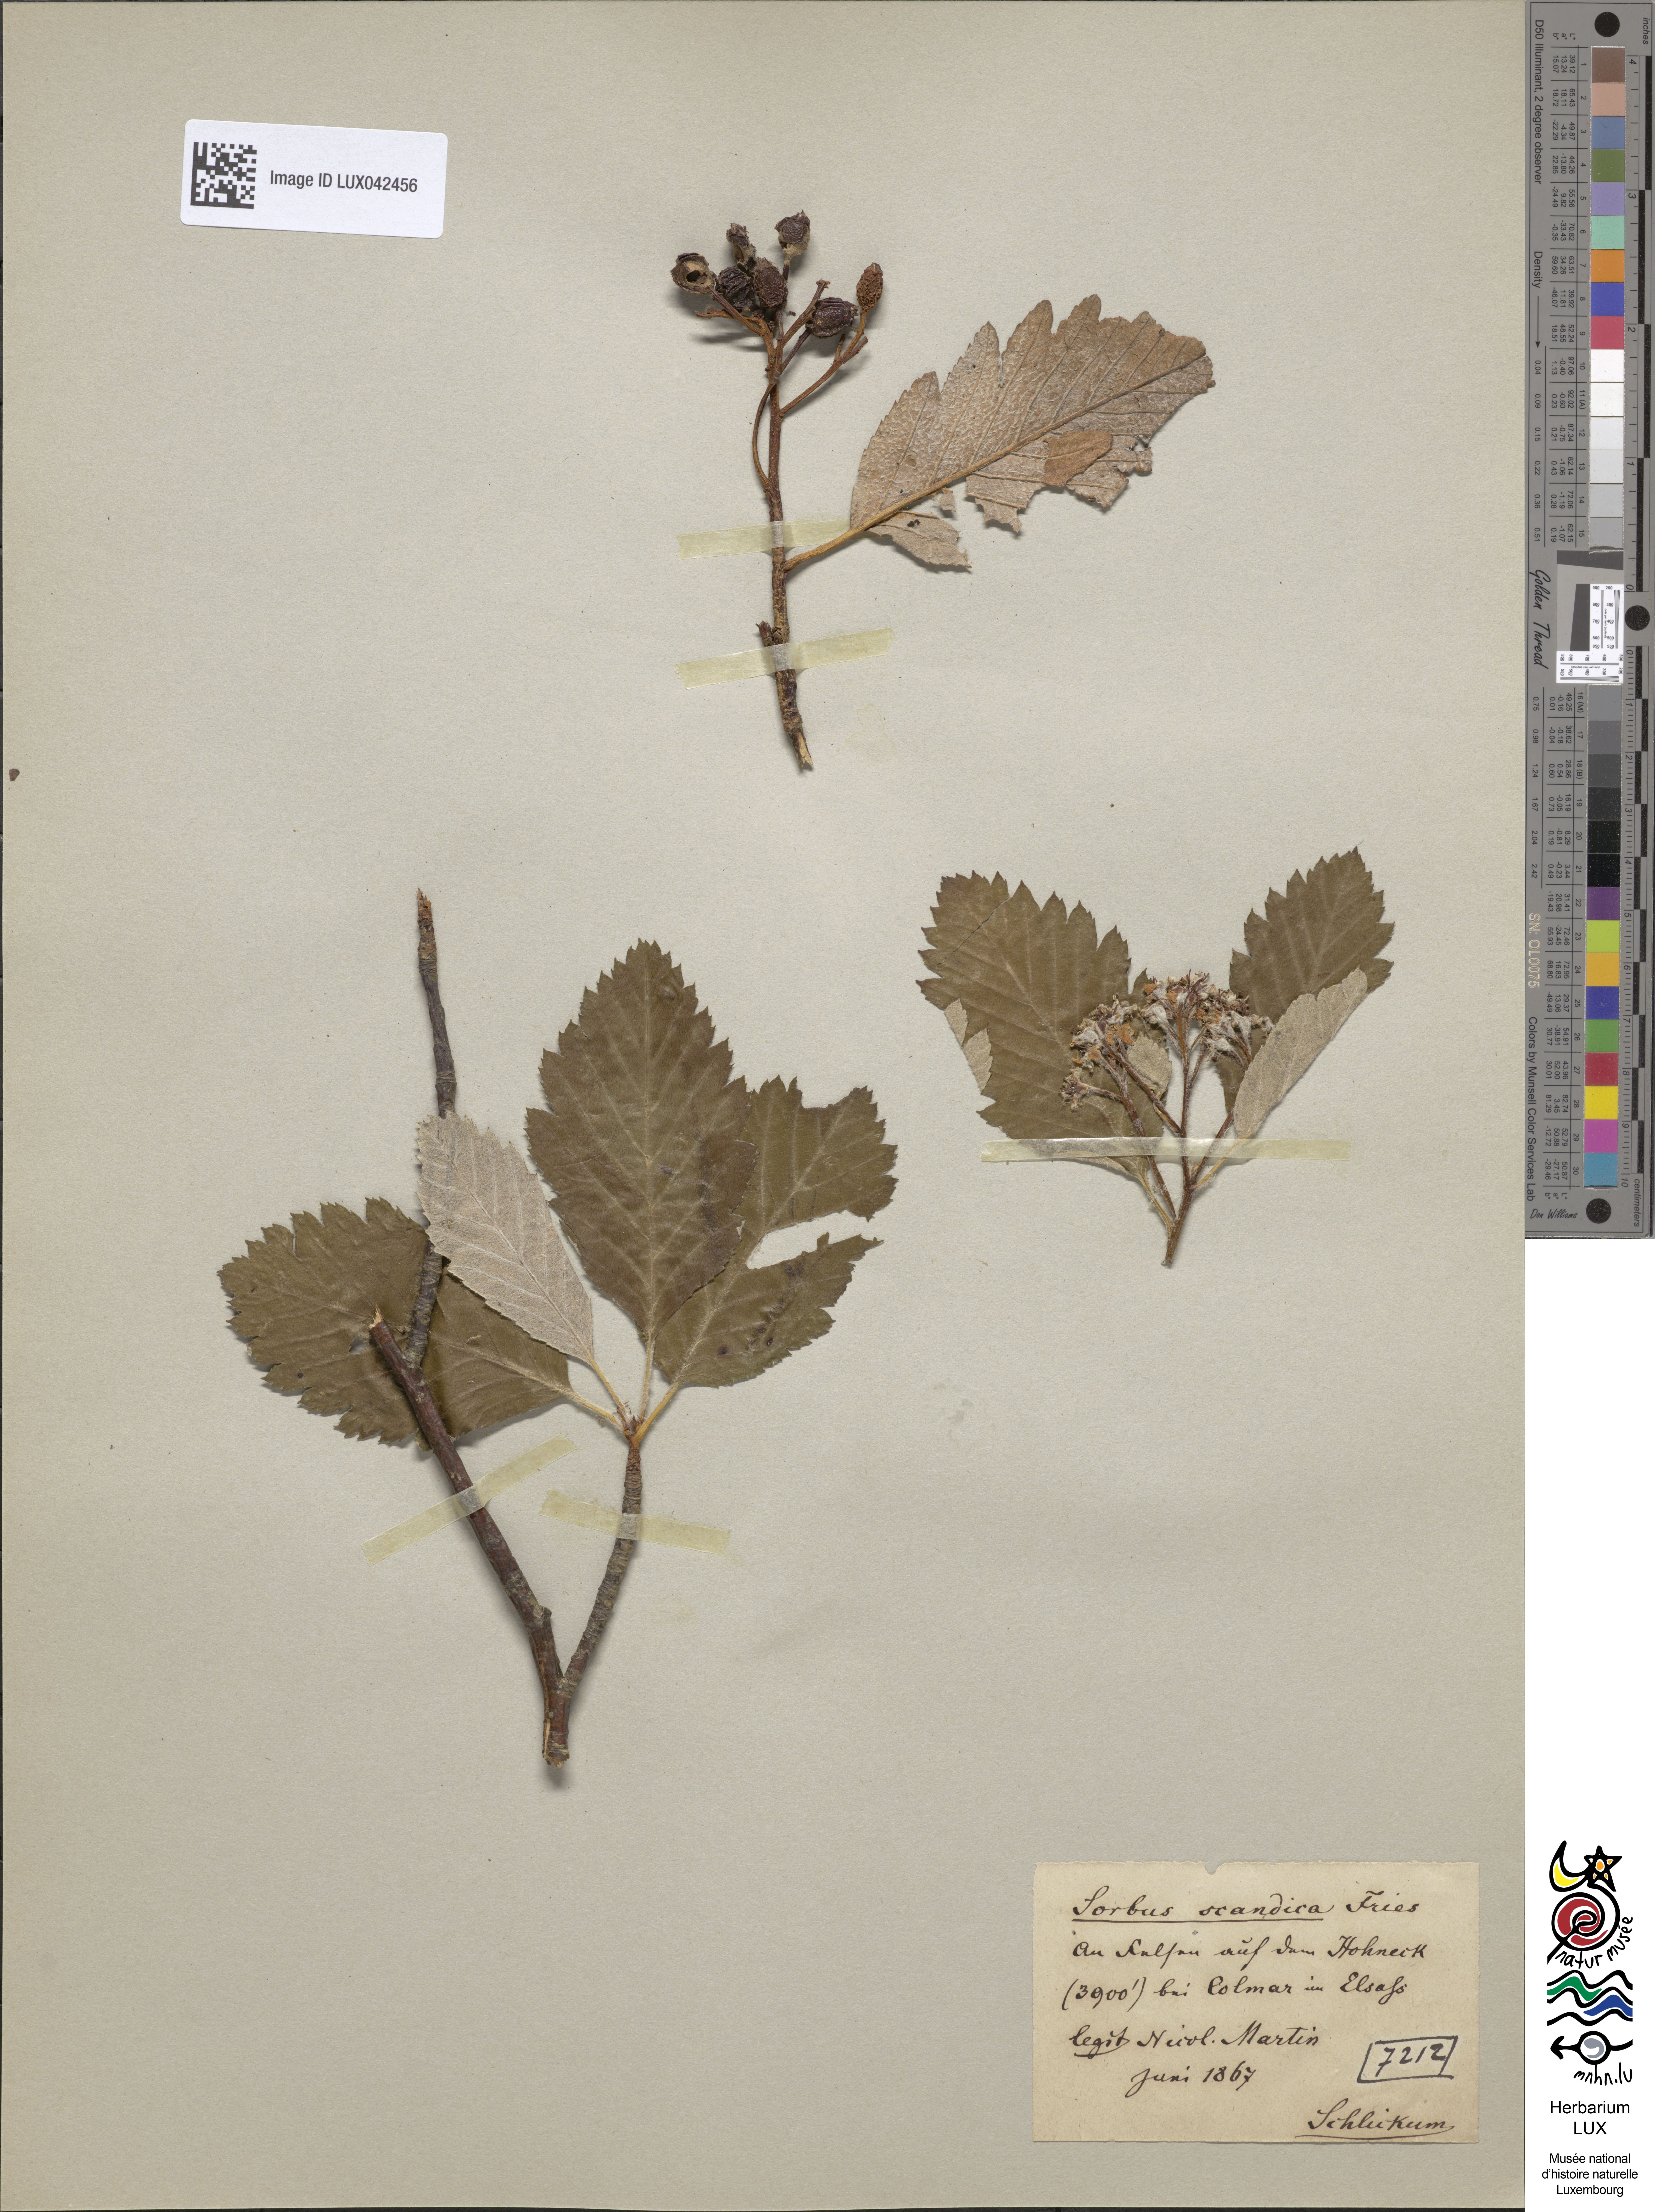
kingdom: Plantae
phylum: Tracheophyta
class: Magnoliopsida
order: Rosales
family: Rosaceae
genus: Scandosorbus
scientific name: Scandosorbus intermedia
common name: Swedish whitebeam
